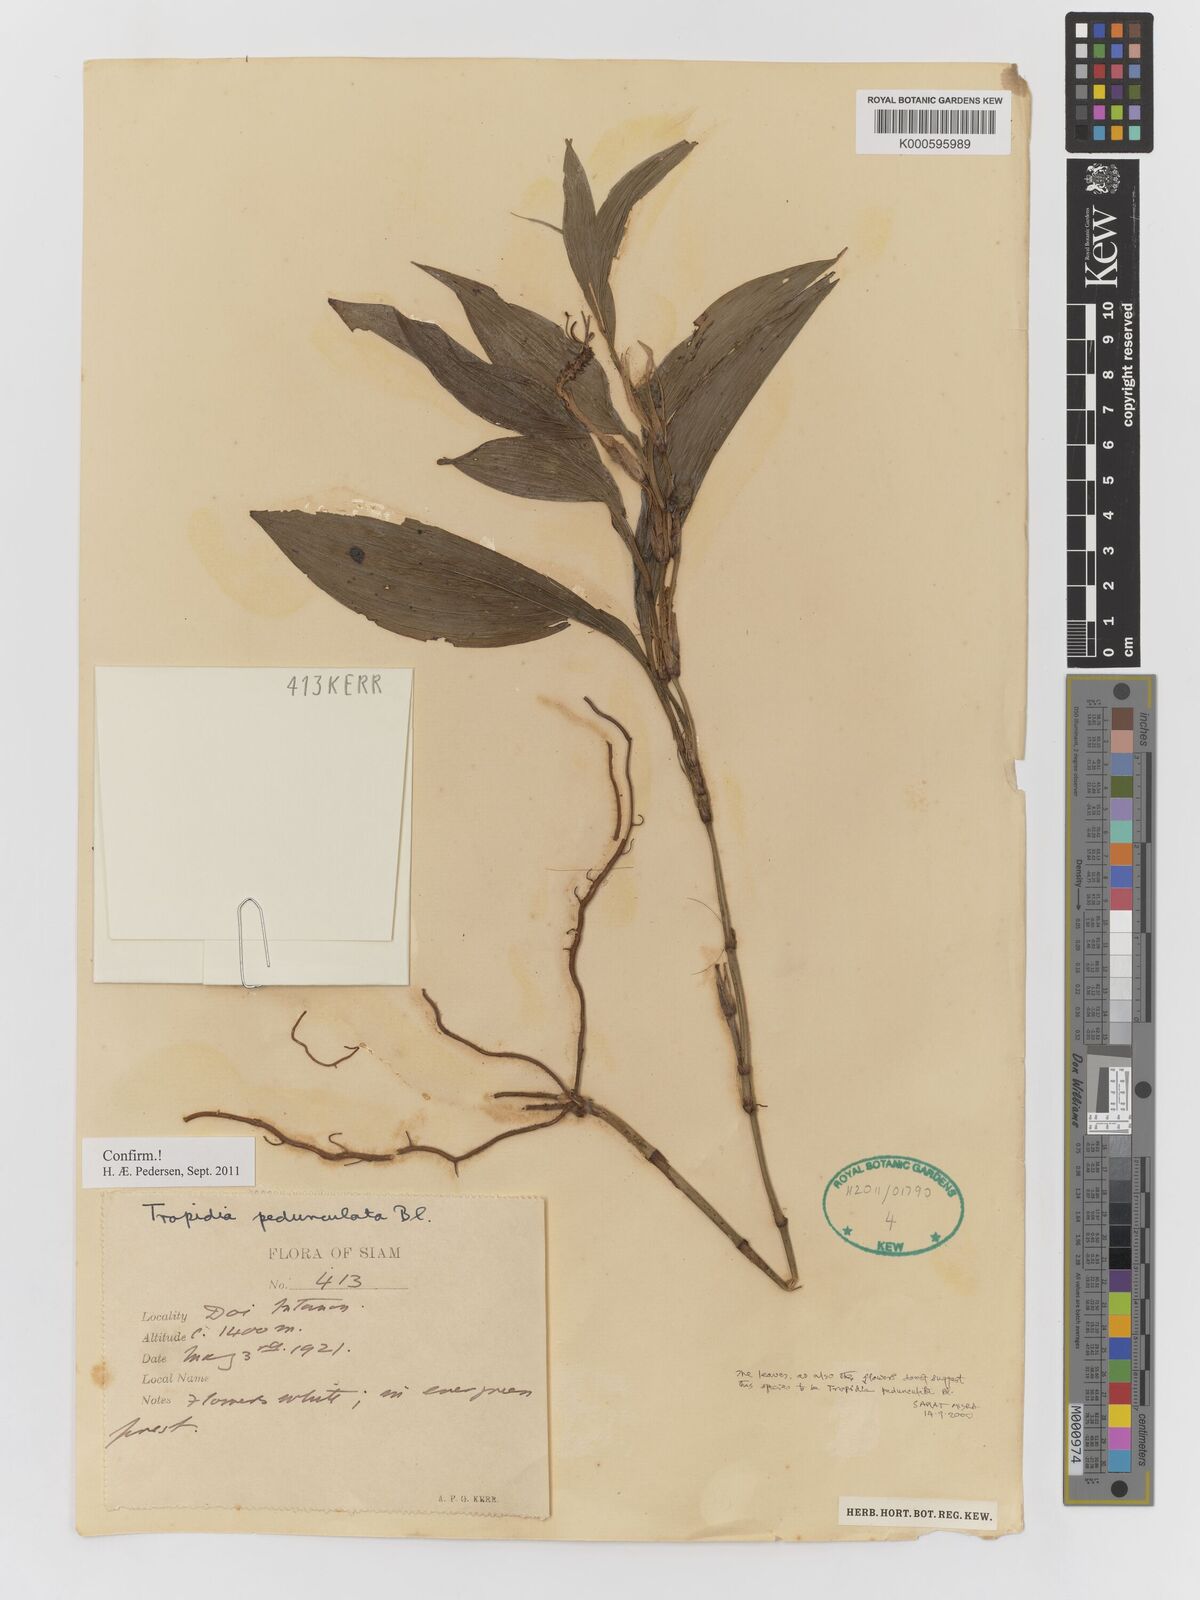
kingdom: Plantae
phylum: Tracheophyta
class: Liliopsida
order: Asparagales
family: Orchidaceae
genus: Tropidia
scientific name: Tropidia pedunculata
